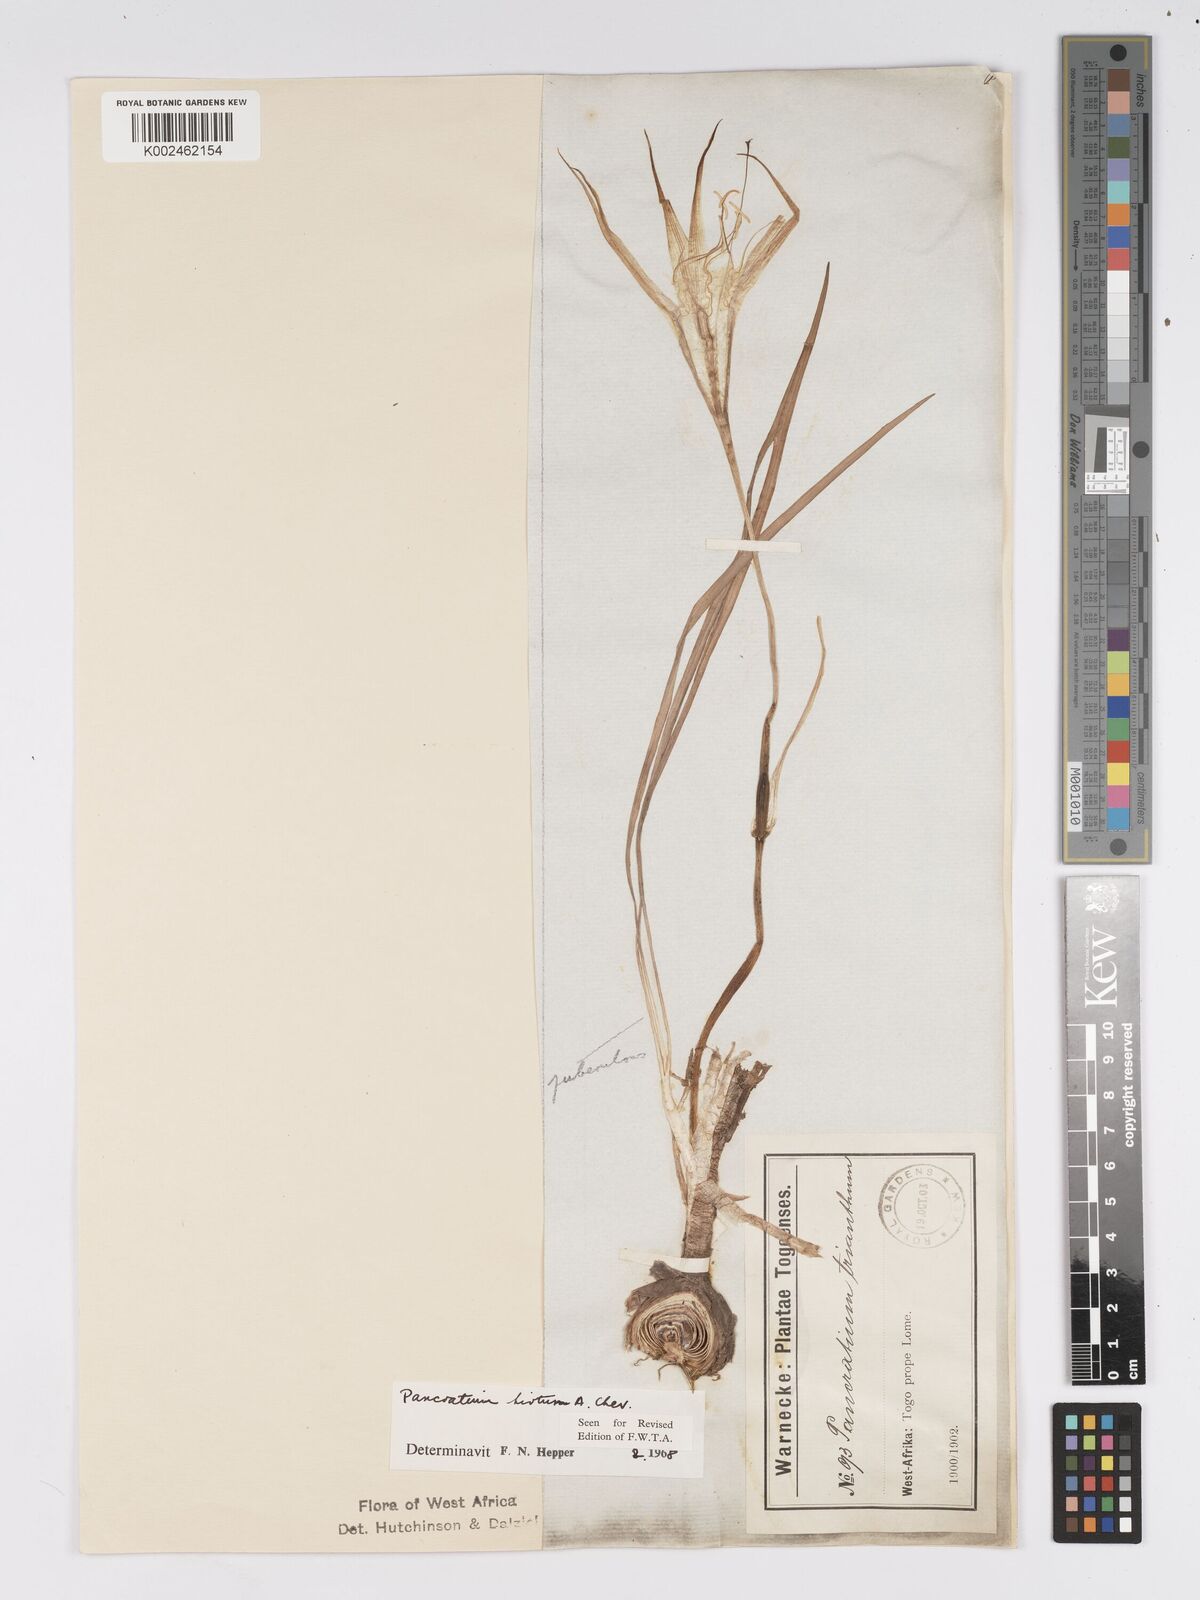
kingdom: Plantae
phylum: Tracheophyta
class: Liliopsida
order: Asparagales
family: Amaryllidaceae
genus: Pancratium
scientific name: Pancratium tenuifolium
